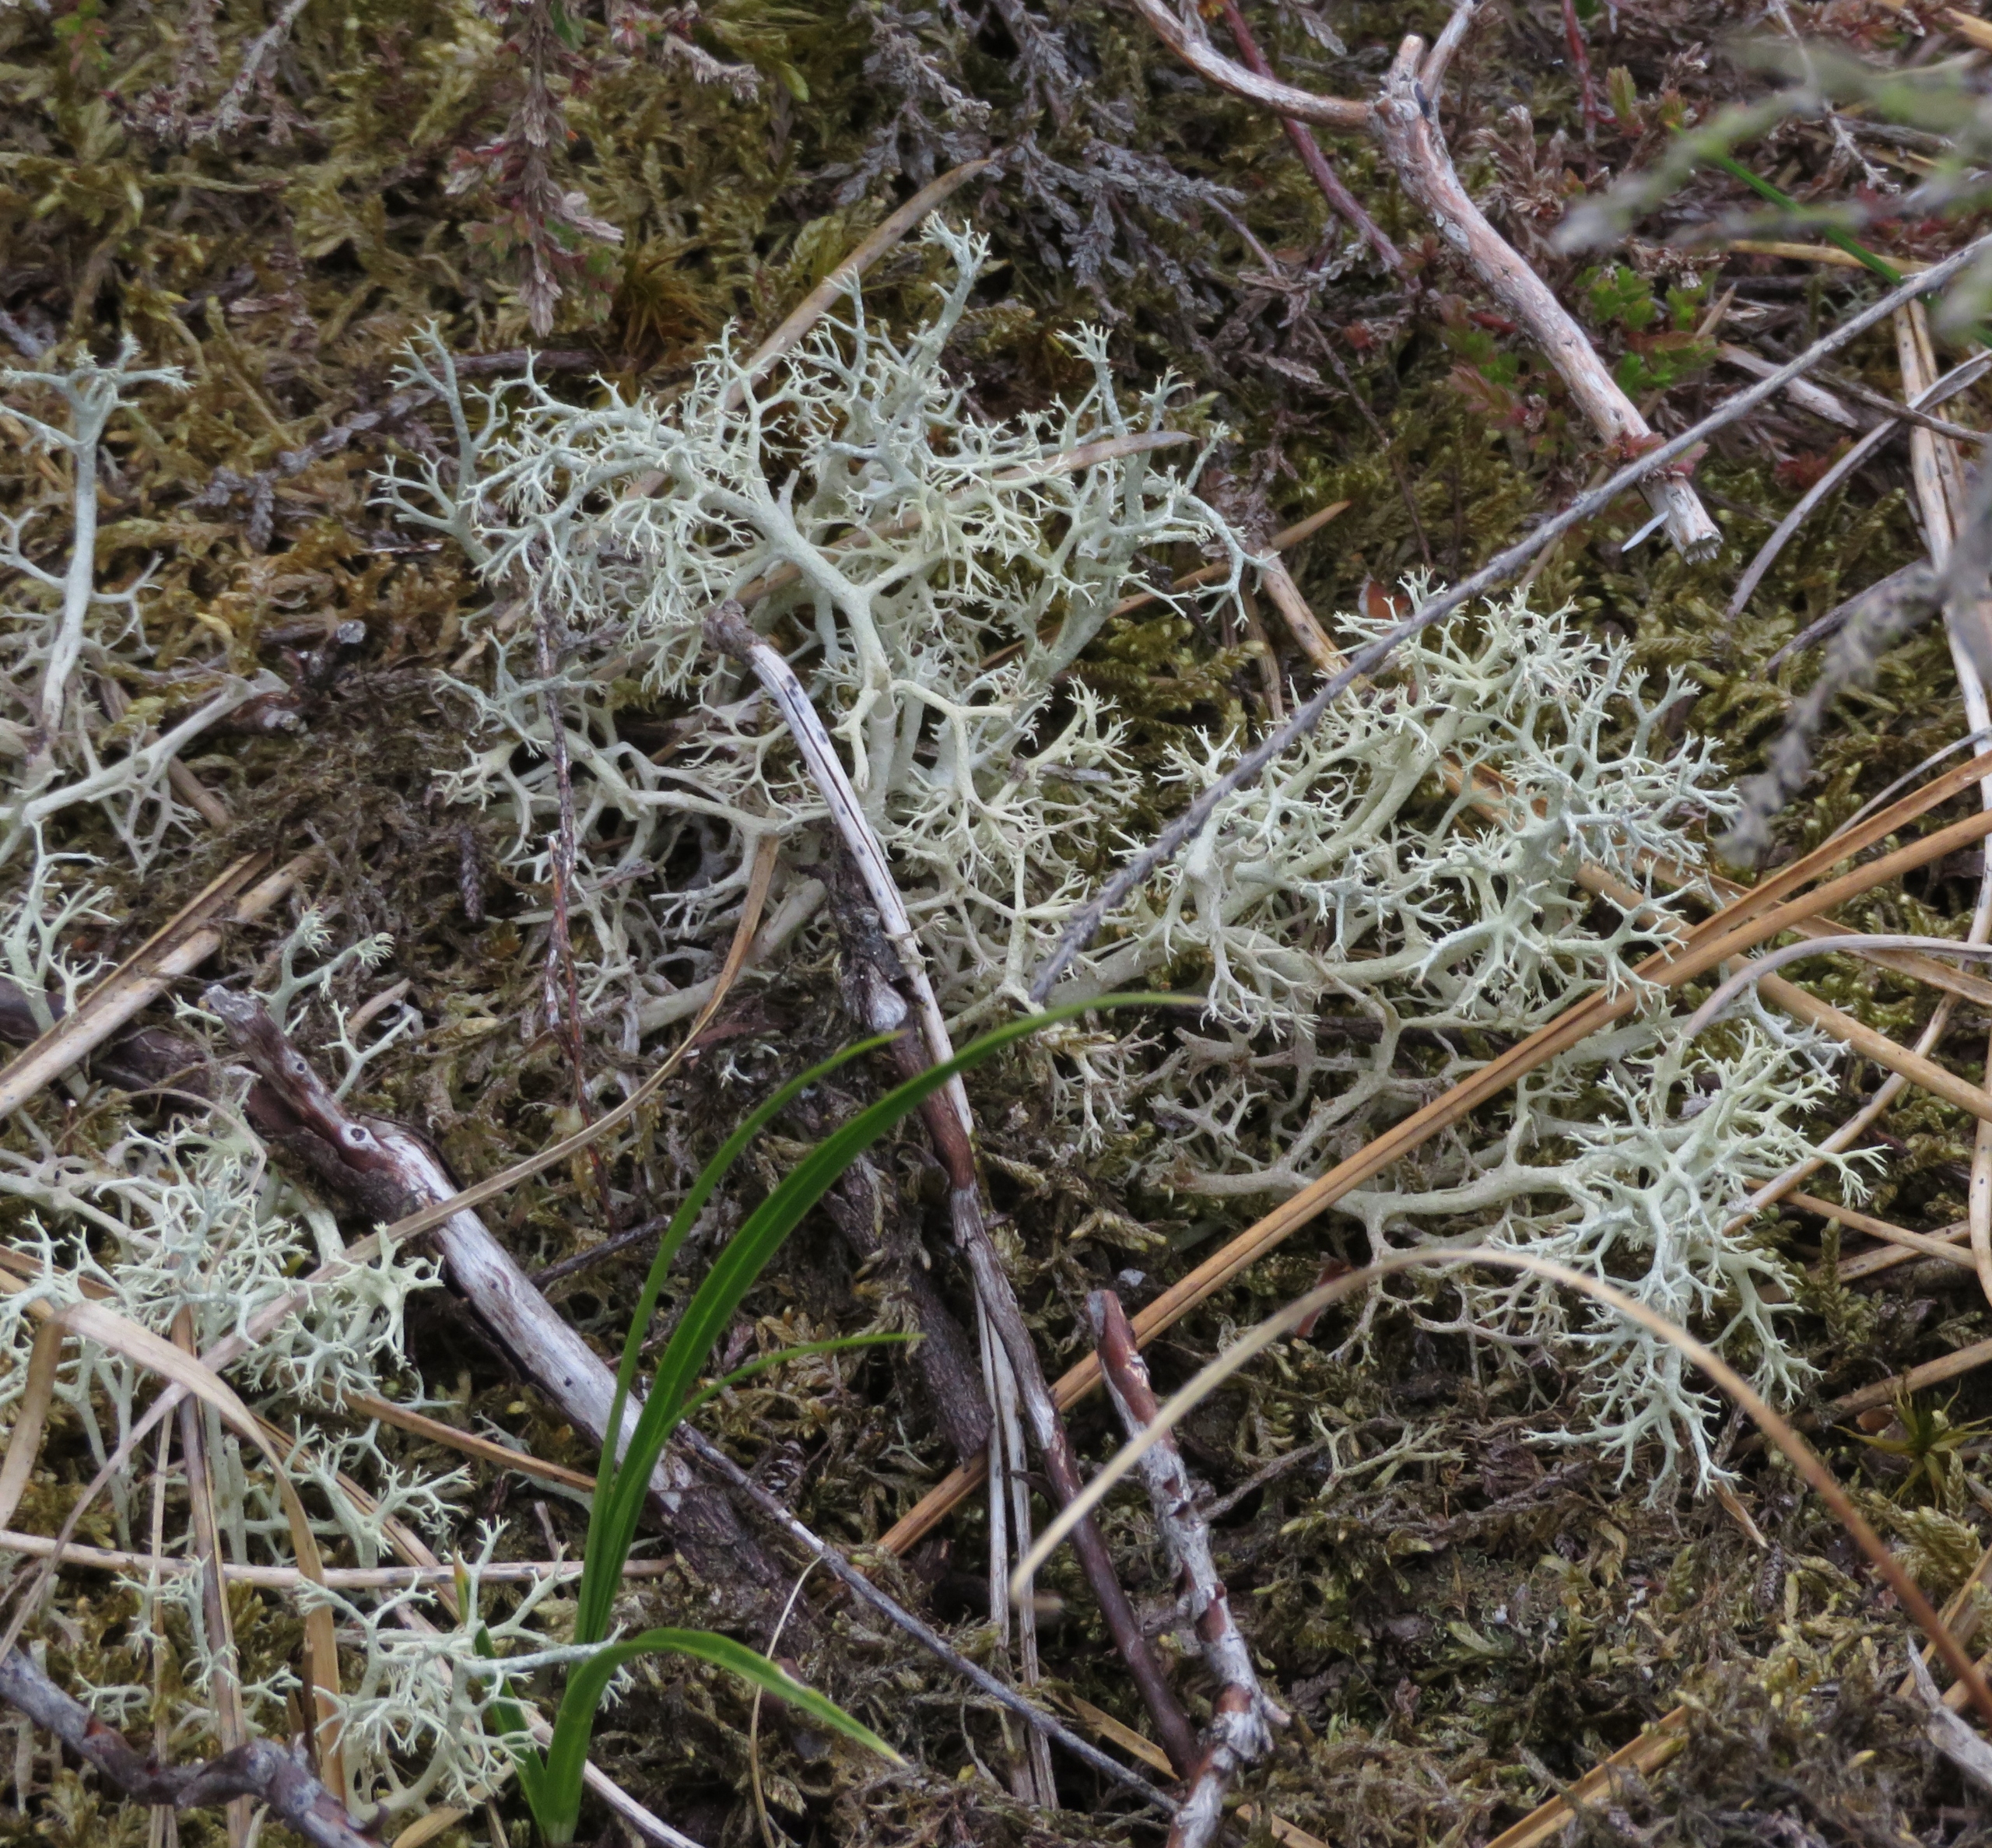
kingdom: Fungi
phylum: Ascomycota
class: Lecanoromycetes
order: Lecanorales
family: Cladoniaceae
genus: Cladonia
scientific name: Cladonia portentosa
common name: Hede-rensdyrlav
